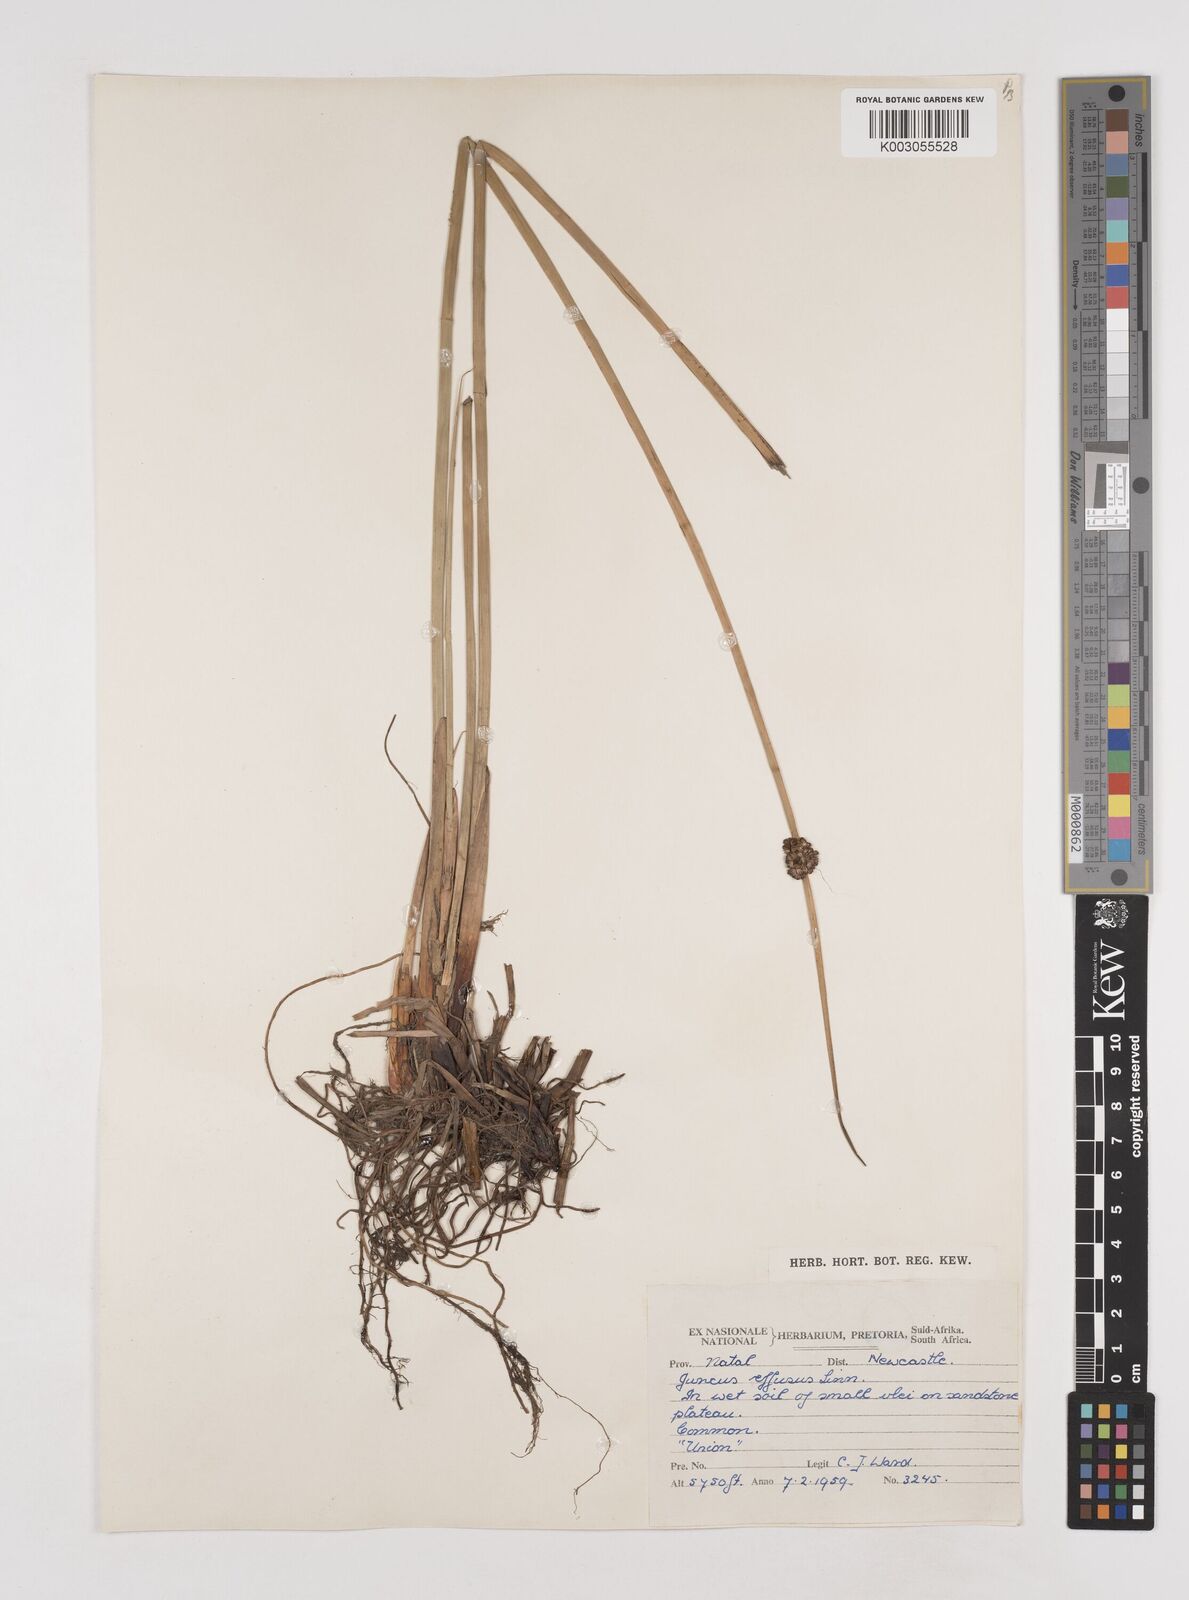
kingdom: Plantae
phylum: Tracheophyta
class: Liliopsida
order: Poales
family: Juncaceae
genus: Juncus
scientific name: Juncus effusus
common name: Soft rush
